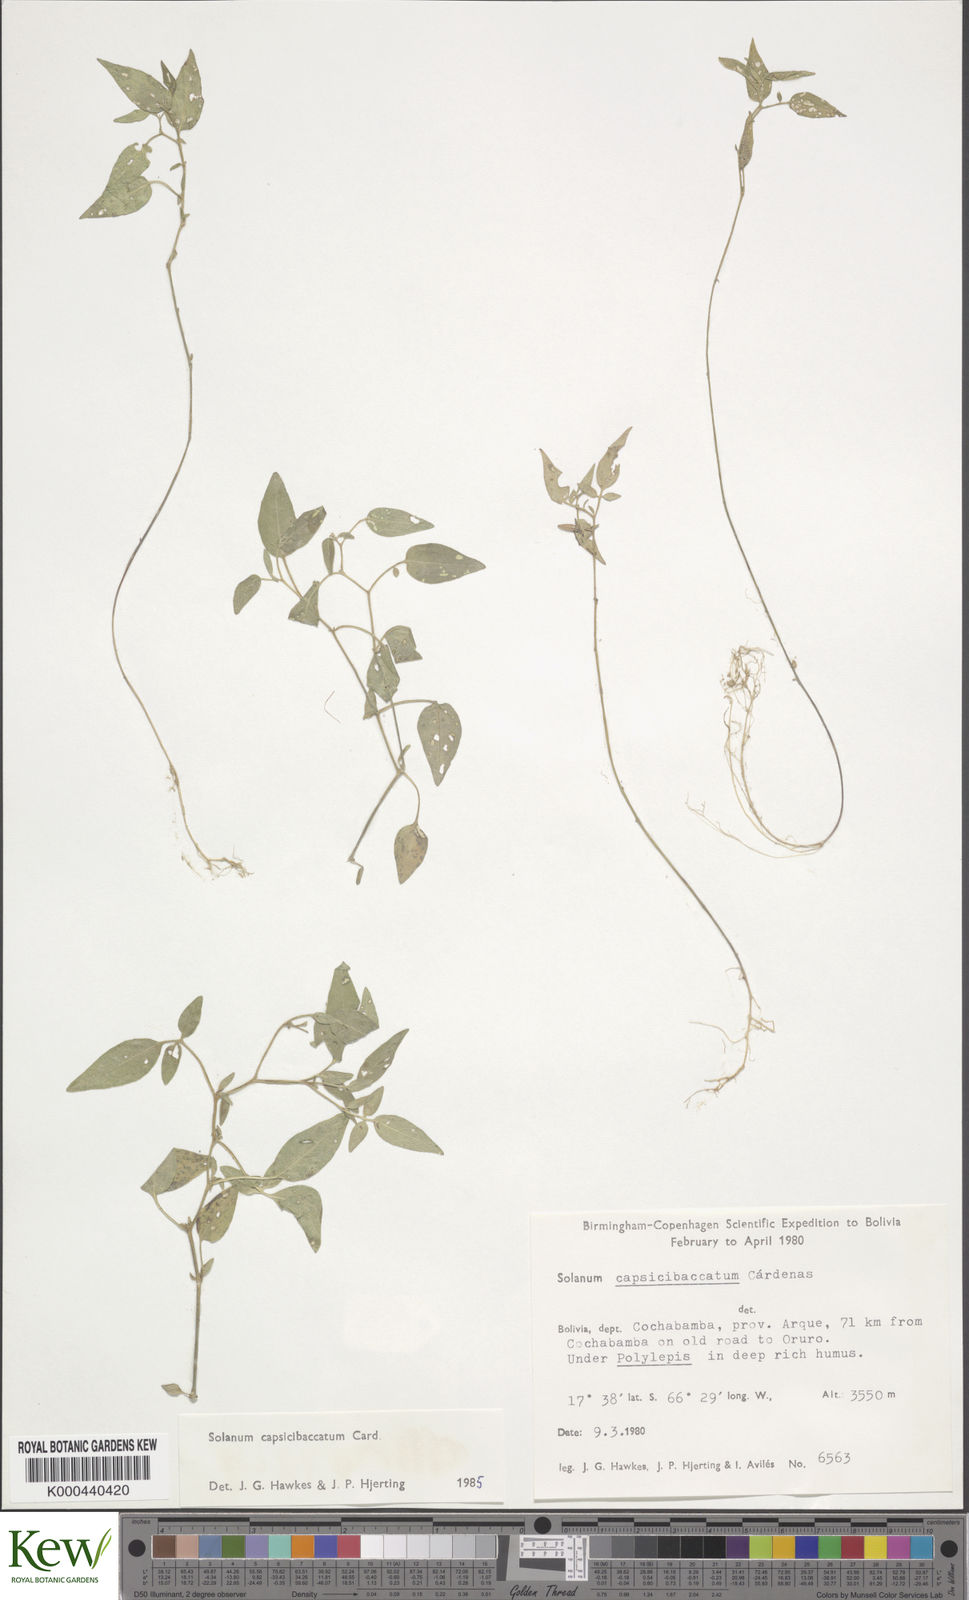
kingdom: Plantae
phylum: Tracheophyta
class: Magnoliopsida
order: Solanales
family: Solanaceae
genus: Solanum
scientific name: Solanum stipuloideum
